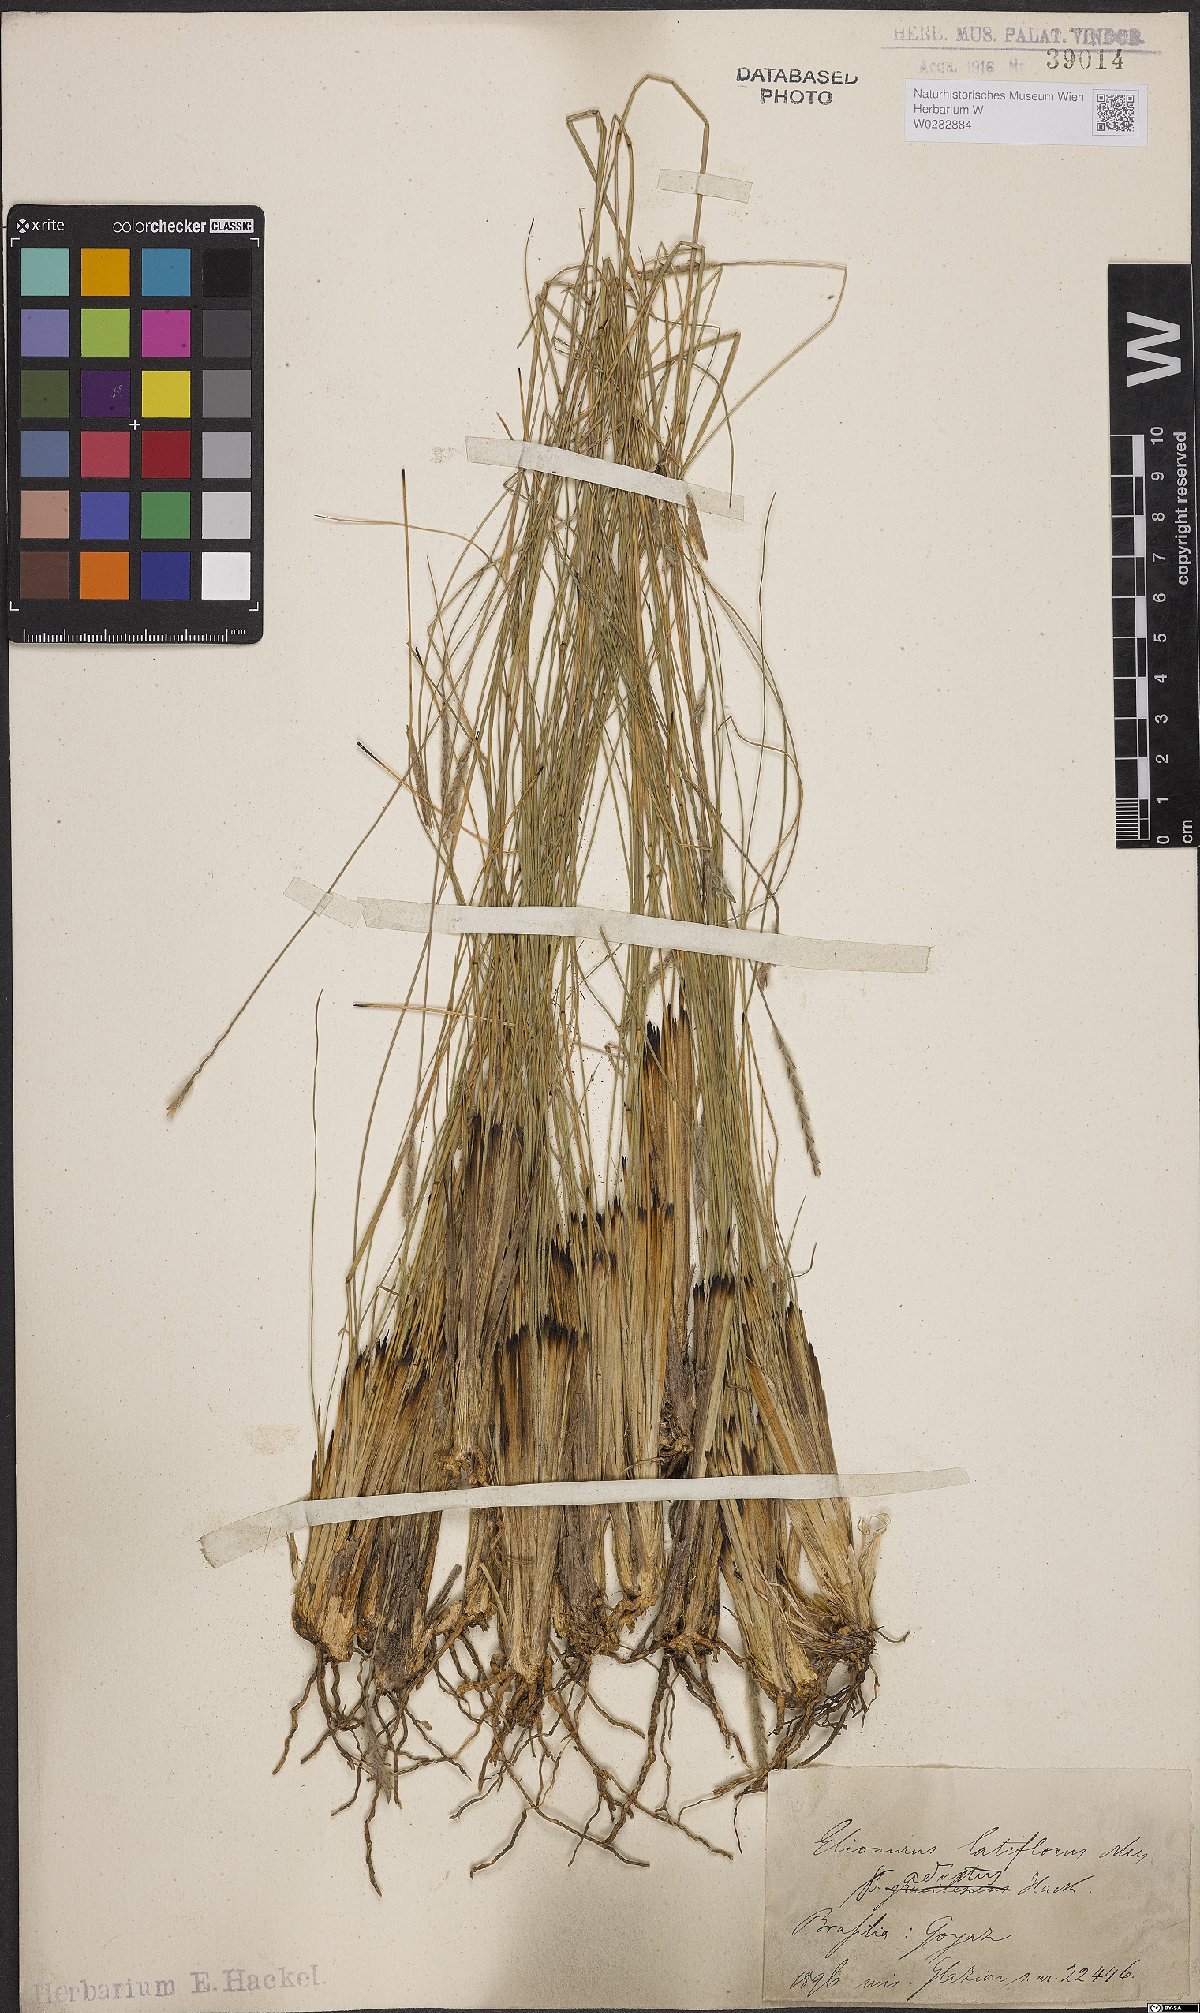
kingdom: Plantae
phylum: Tracheophyta
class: Liliopsida
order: Poales
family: Poaceae
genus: Elionurus
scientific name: Elionurus muticus
